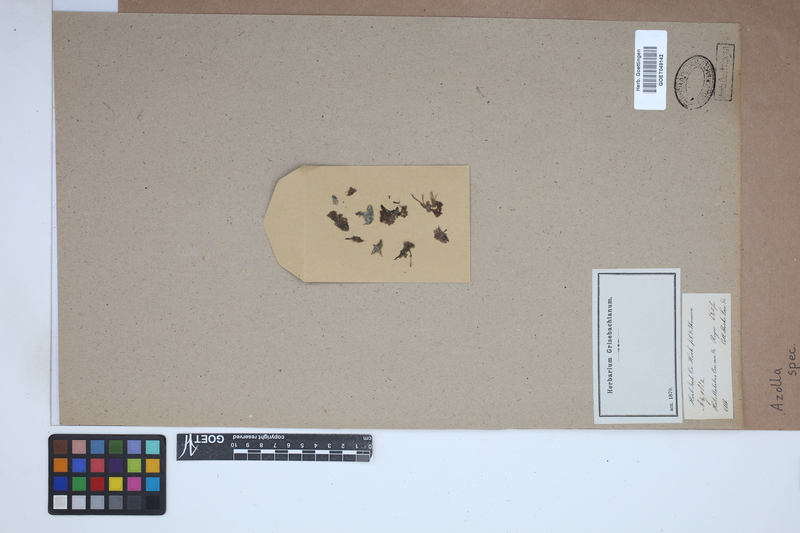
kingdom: Plantae
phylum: Tracheophyta
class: Polypodiopsida
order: Salviniales
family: Salviniaceae
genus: Azolla
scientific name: Azolla
